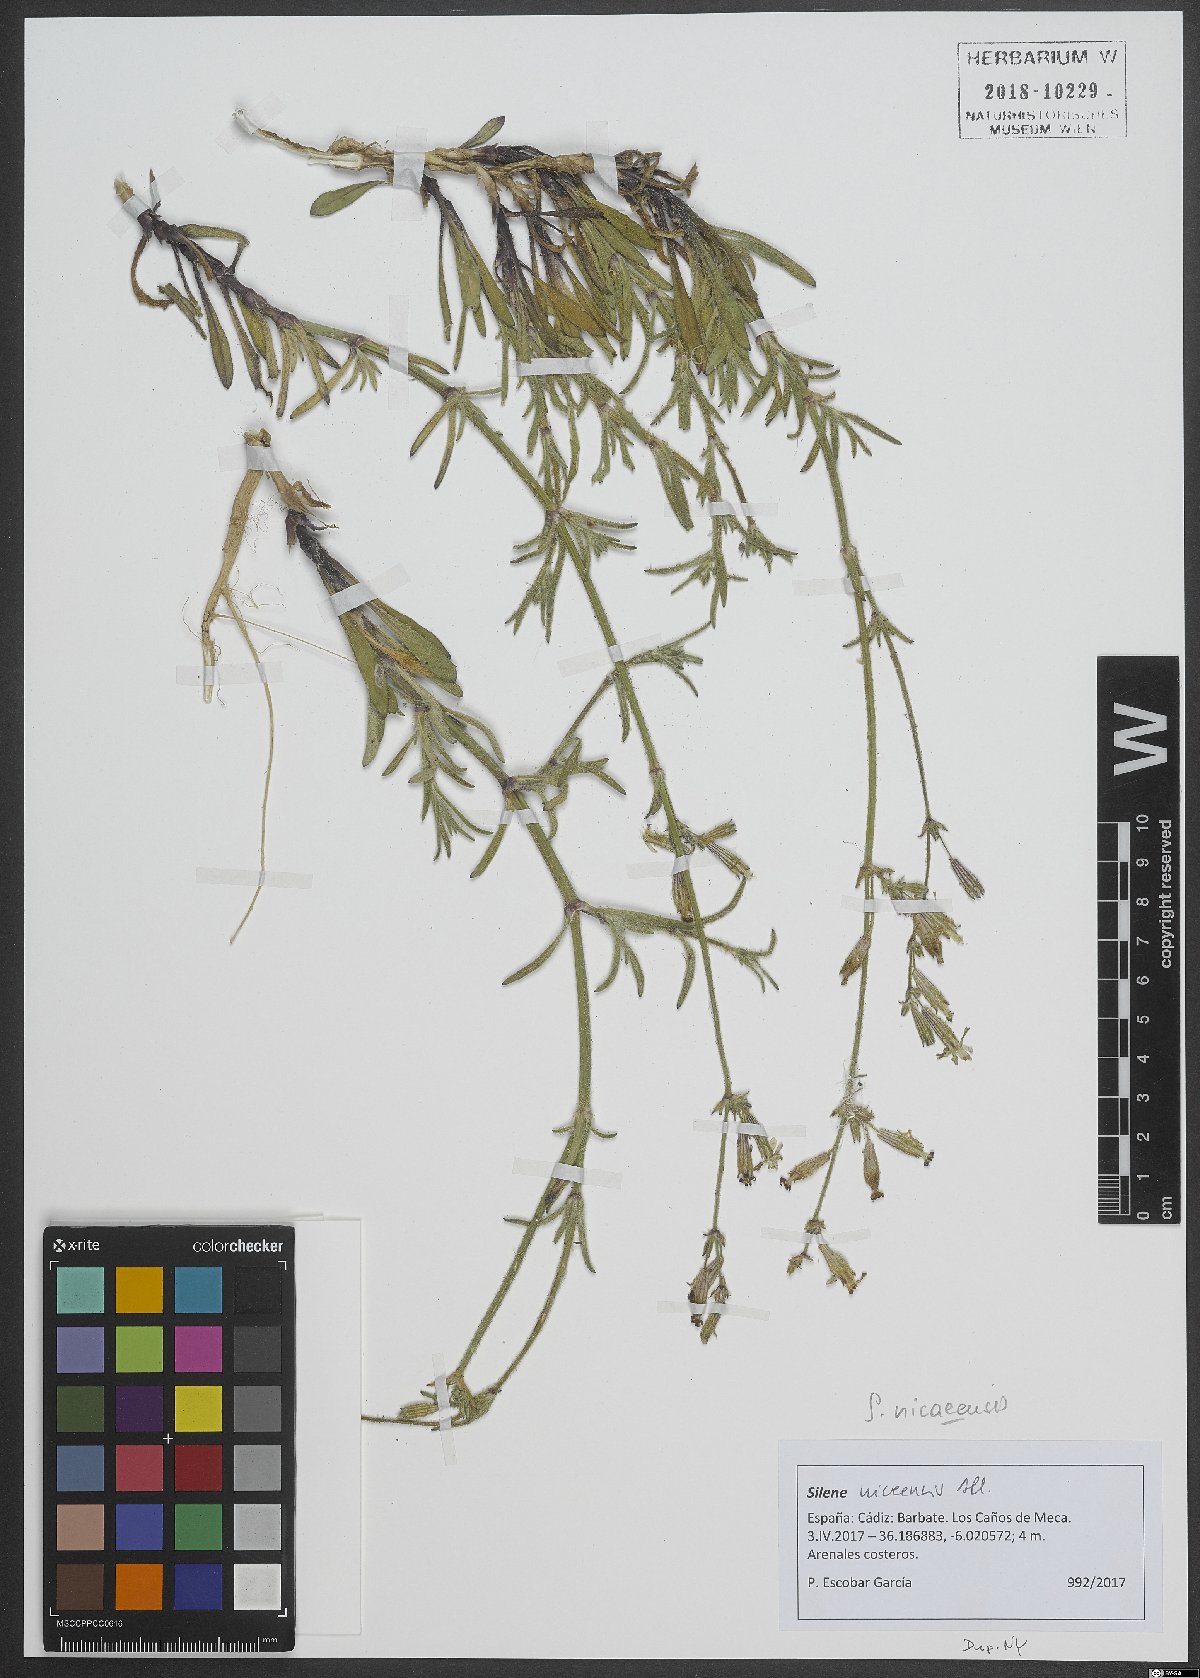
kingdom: Plantae
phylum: Tracheophyta
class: Magnoliopsida
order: Caryophyllales
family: Caryophyllaceae
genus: Silene
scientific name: Silene nicaeensis
